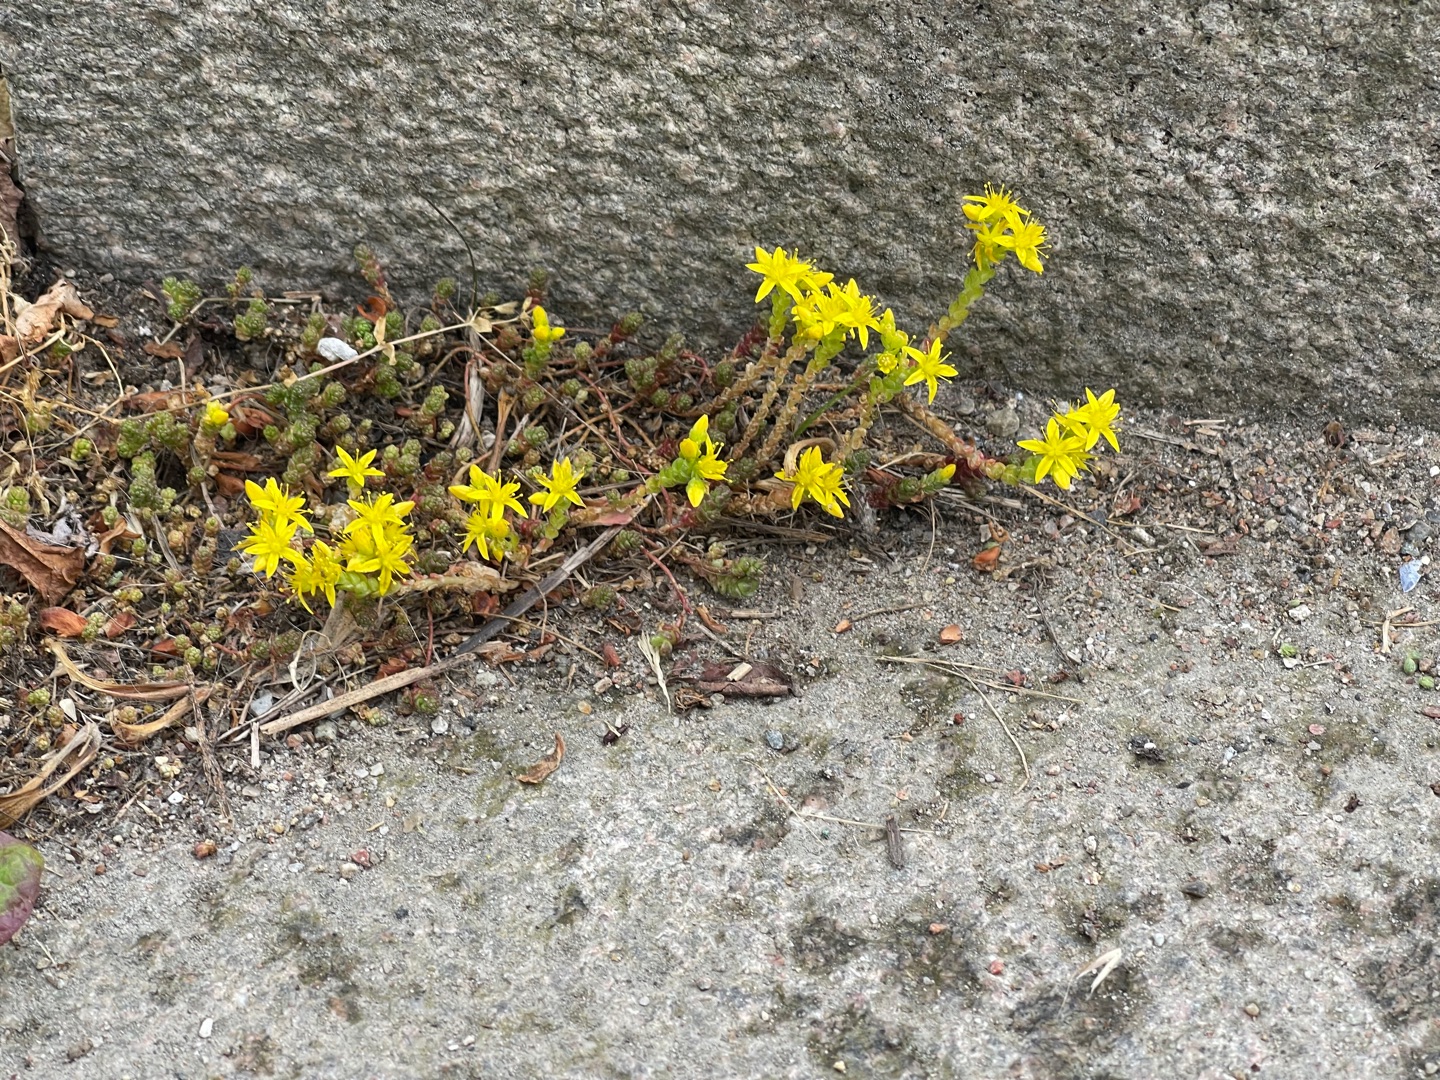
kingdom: Plantae
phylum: Tracheophyta
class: Magnoliopsida
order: Saxifragales
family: Crassulaceae
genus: Sedum
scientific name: Sedum acre
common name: Bidende stenurt
